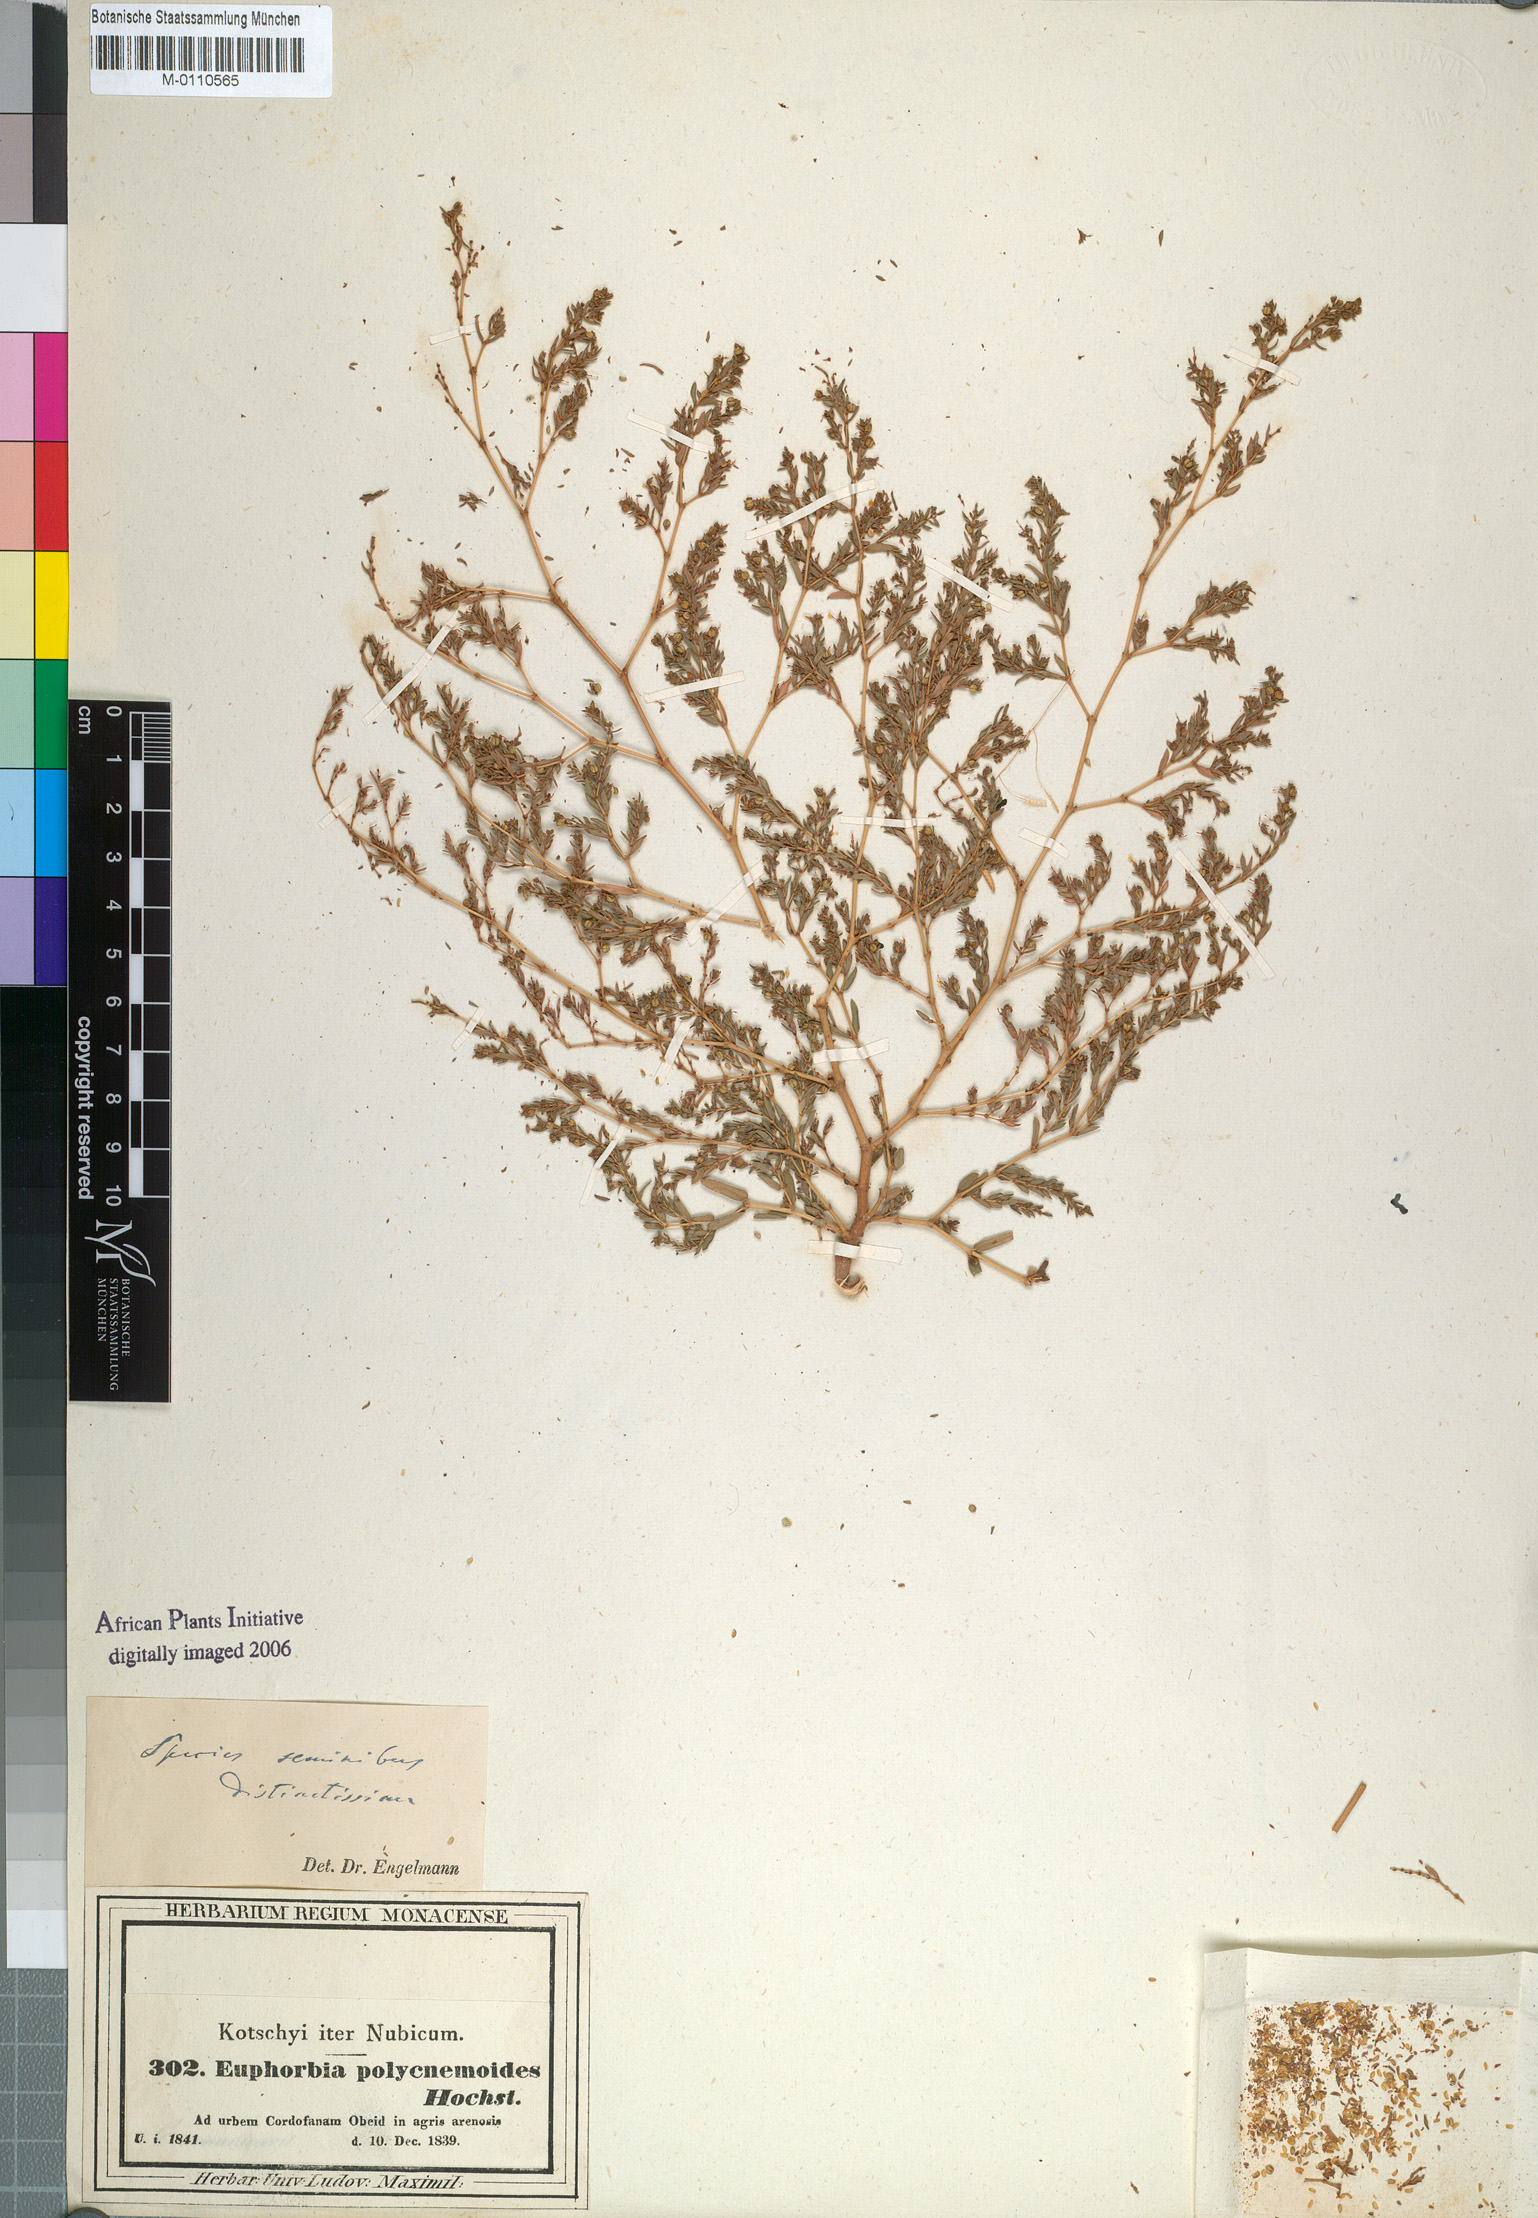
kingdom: Plantae
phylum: Tracheophyta
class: Magnoliopsida
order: Malpighiales
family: Euphorbiaceae
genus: Euphorbia
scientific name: Euphorbia polycnemoides
